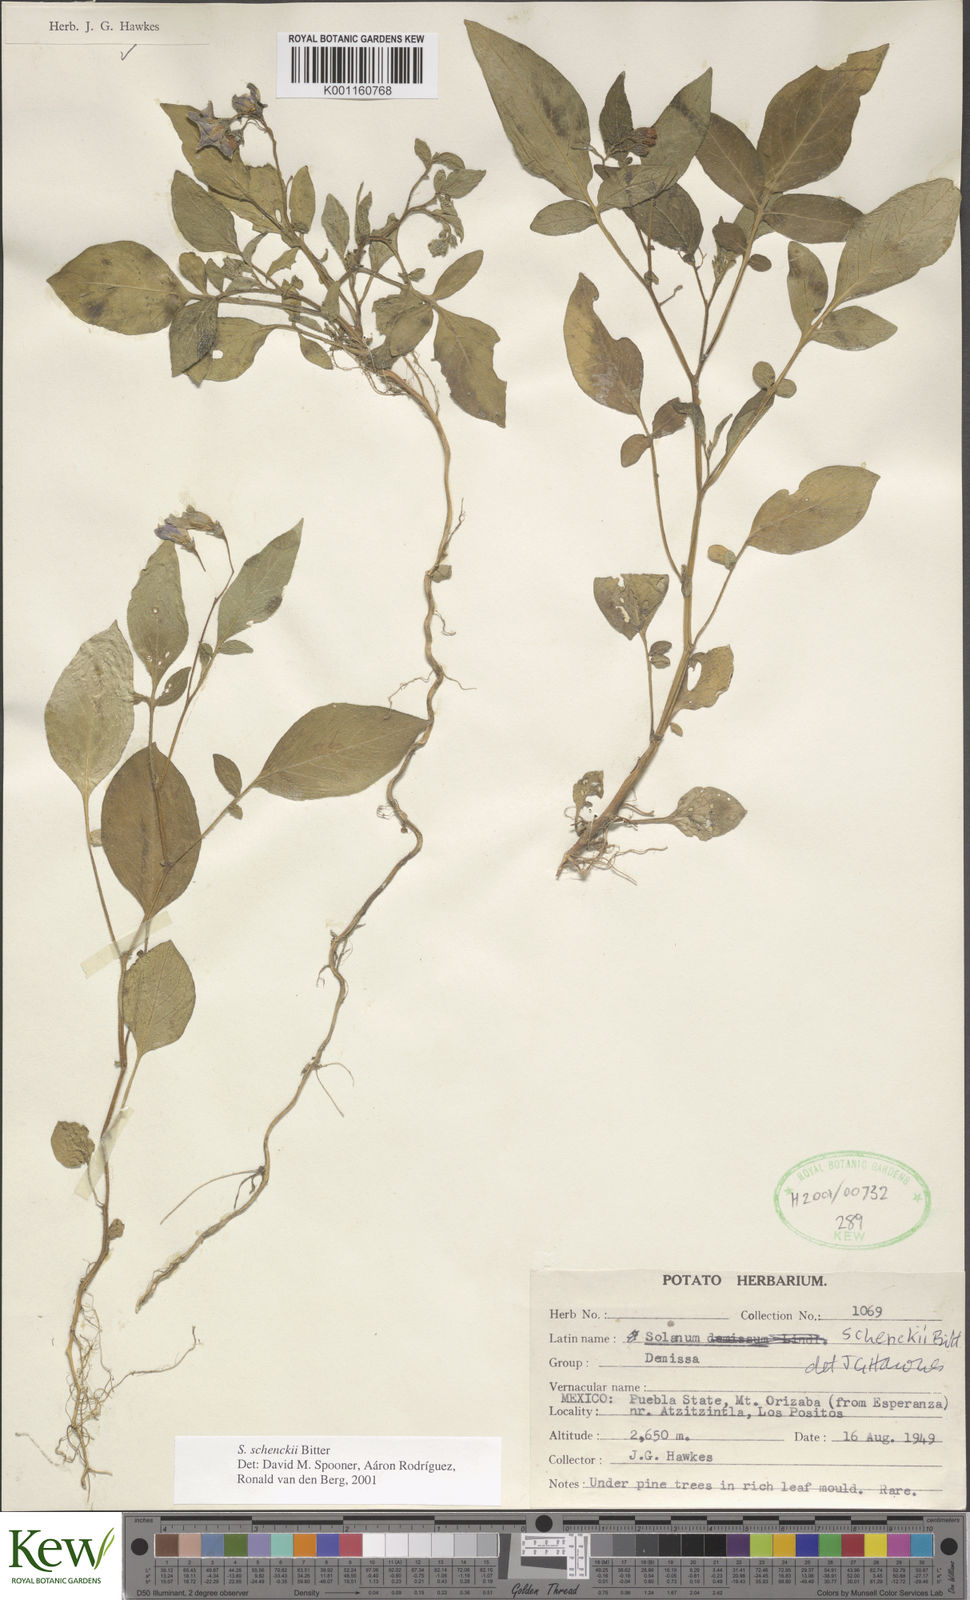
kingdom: Plantae
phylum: Tracheophyta
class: Magnoliopsida
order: Solanales
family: Solanaceae
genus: Solanum
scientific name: Solanum schenckii
